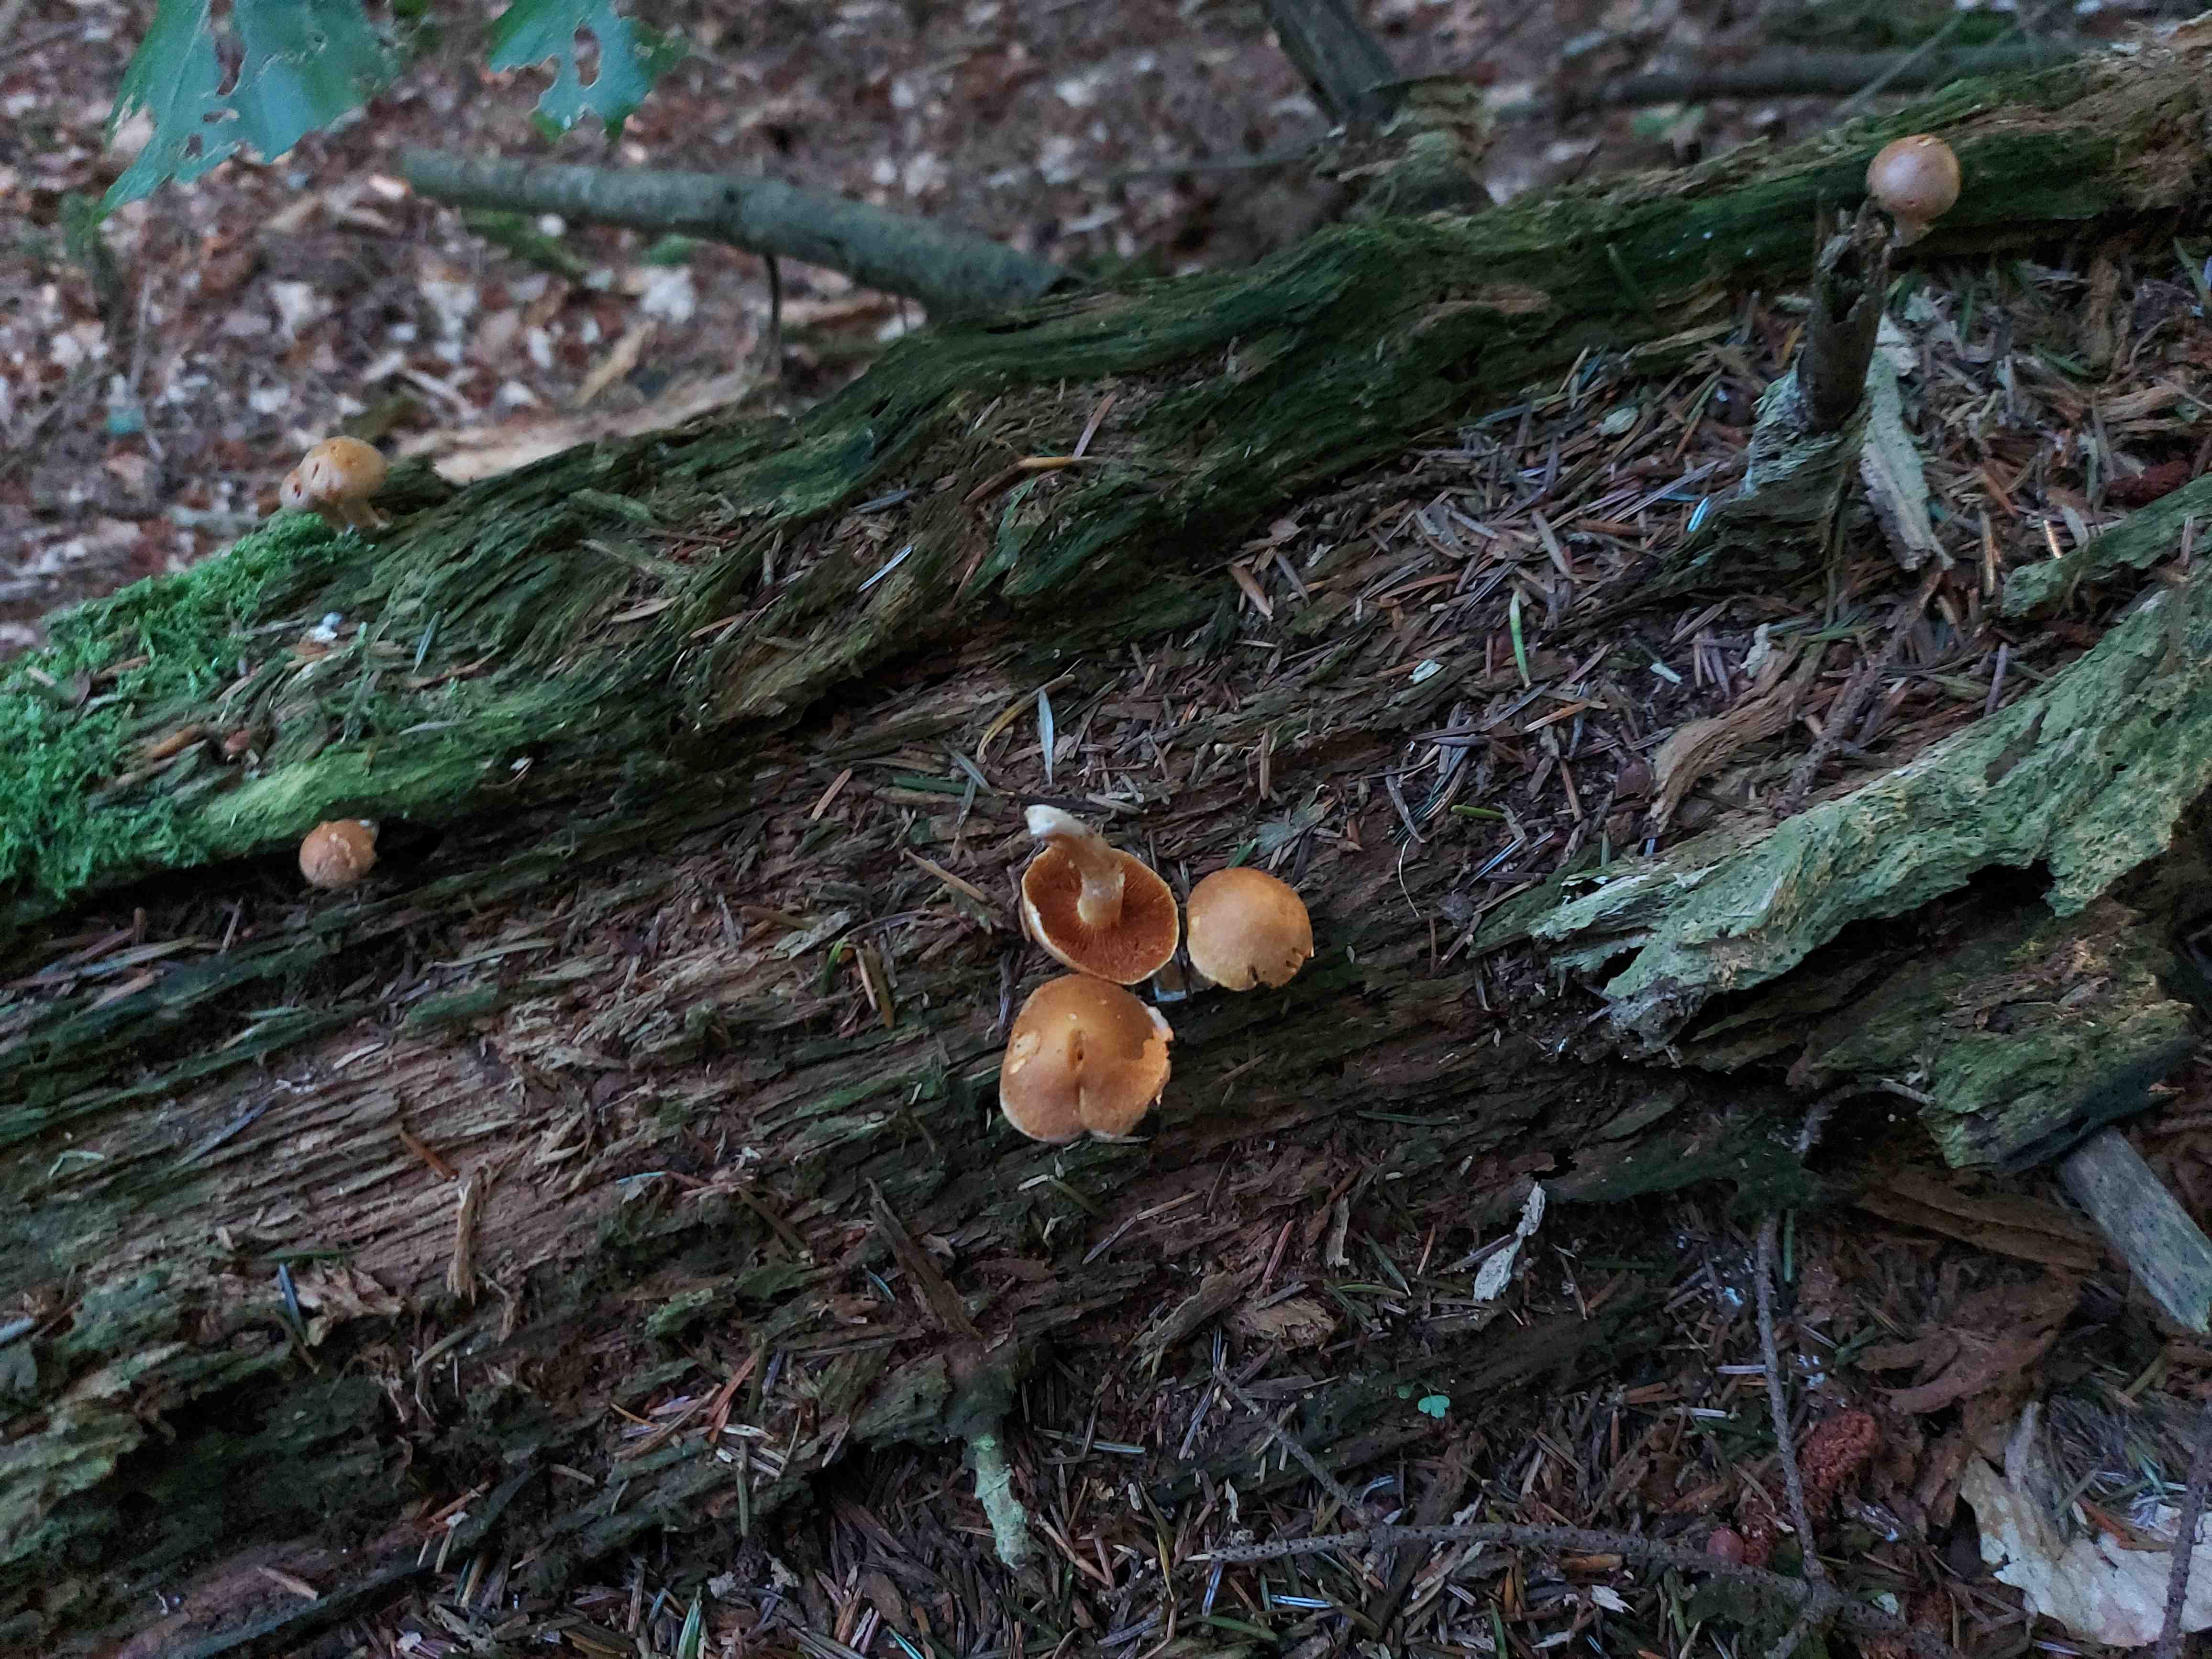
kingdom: Fungi
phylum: Basidiomycota
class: Agaricomycetes
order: Agaricales
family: Hymenogastraceae
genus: Gymnopilus
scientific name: Gymnopilus penetrans
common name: plettet flammehat
